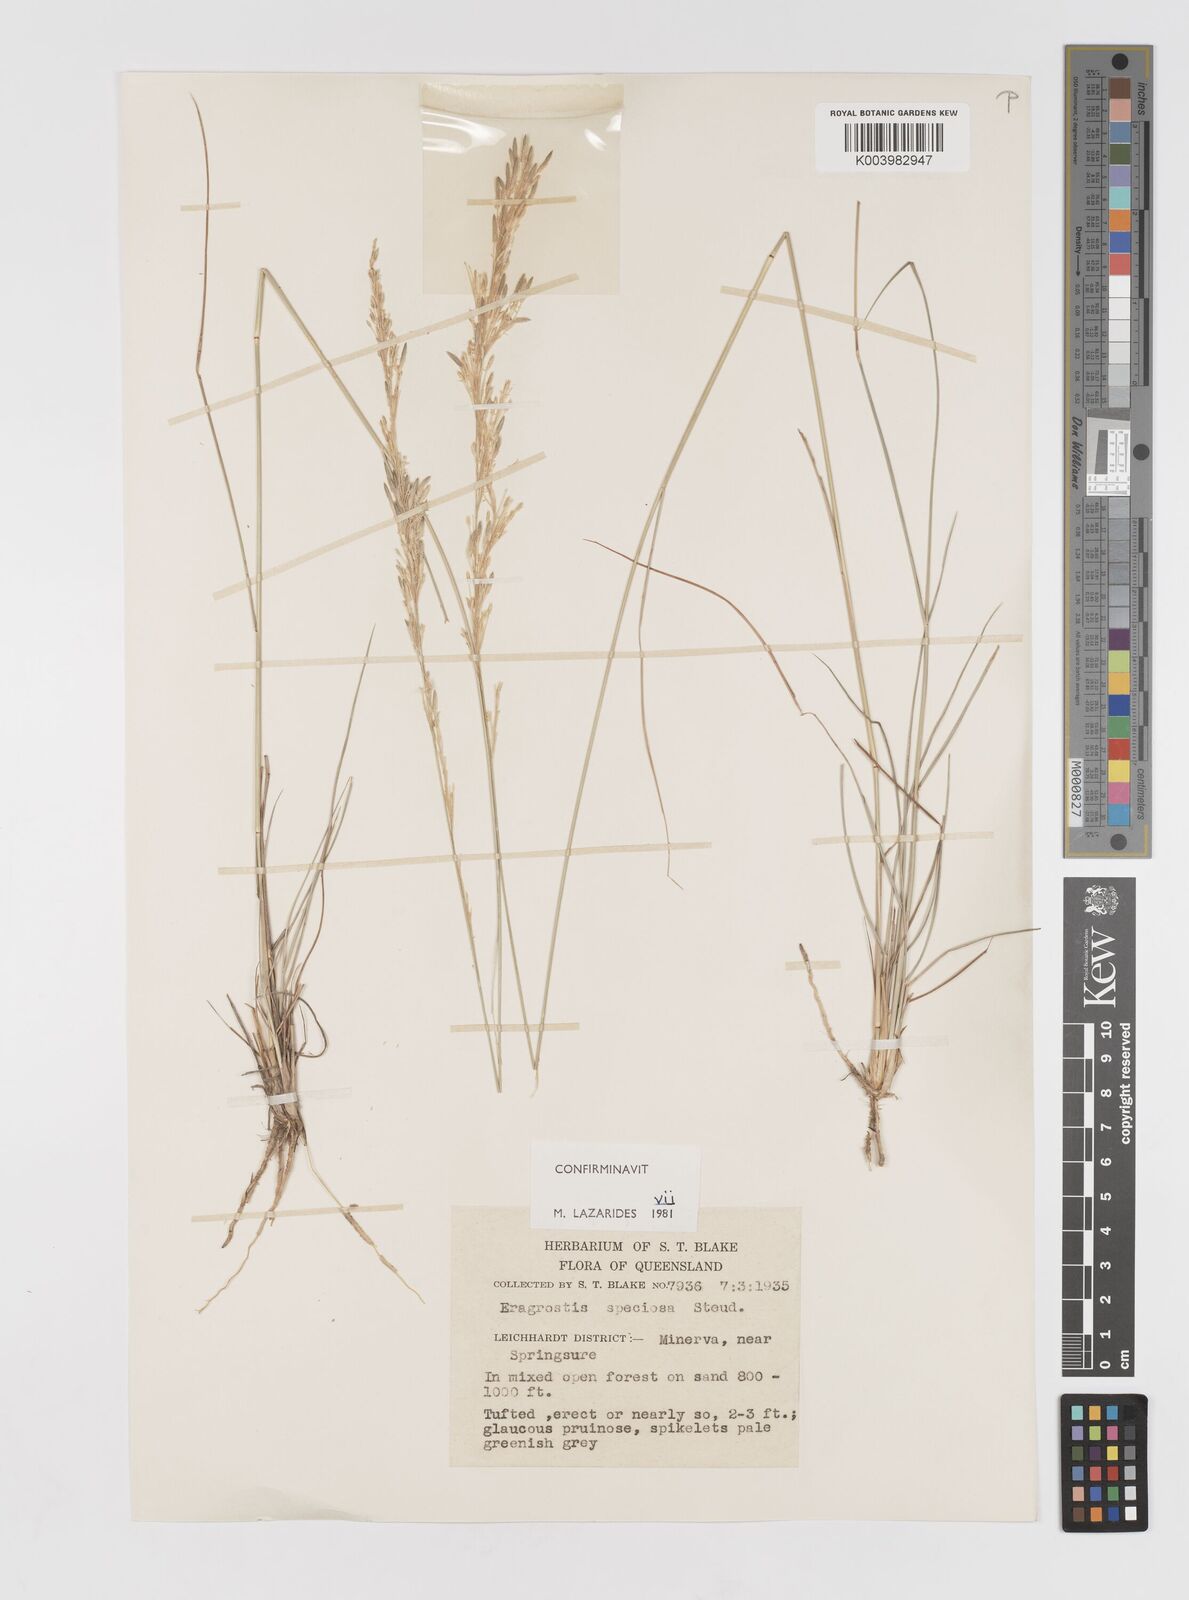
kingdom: Plantae
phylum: Tracheophyta
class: Liliopsida
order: Poales
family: Poaceae
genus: Eragrostis
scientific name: Eragrostis speciosa
